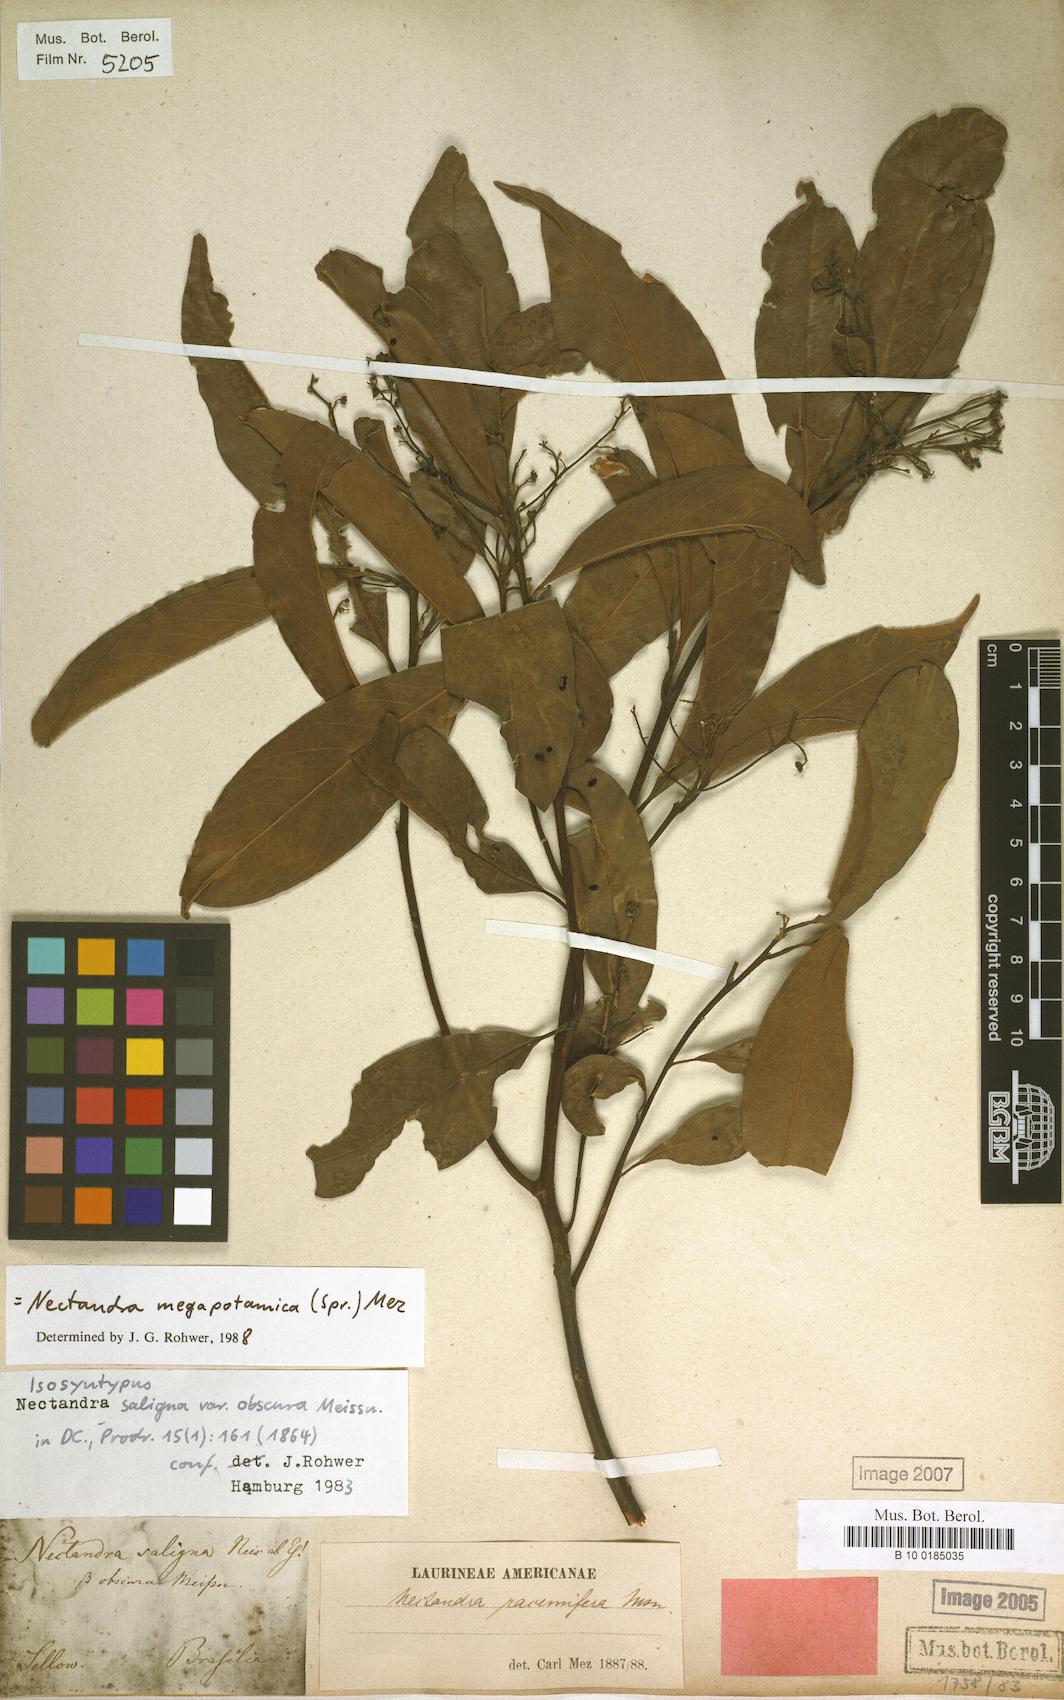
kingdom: Plantae
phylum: Tracheophyta
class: Magnoliopsida
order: Laurales
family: Lauraceae
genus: Nectandra
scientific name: Nectandra megapotamica
